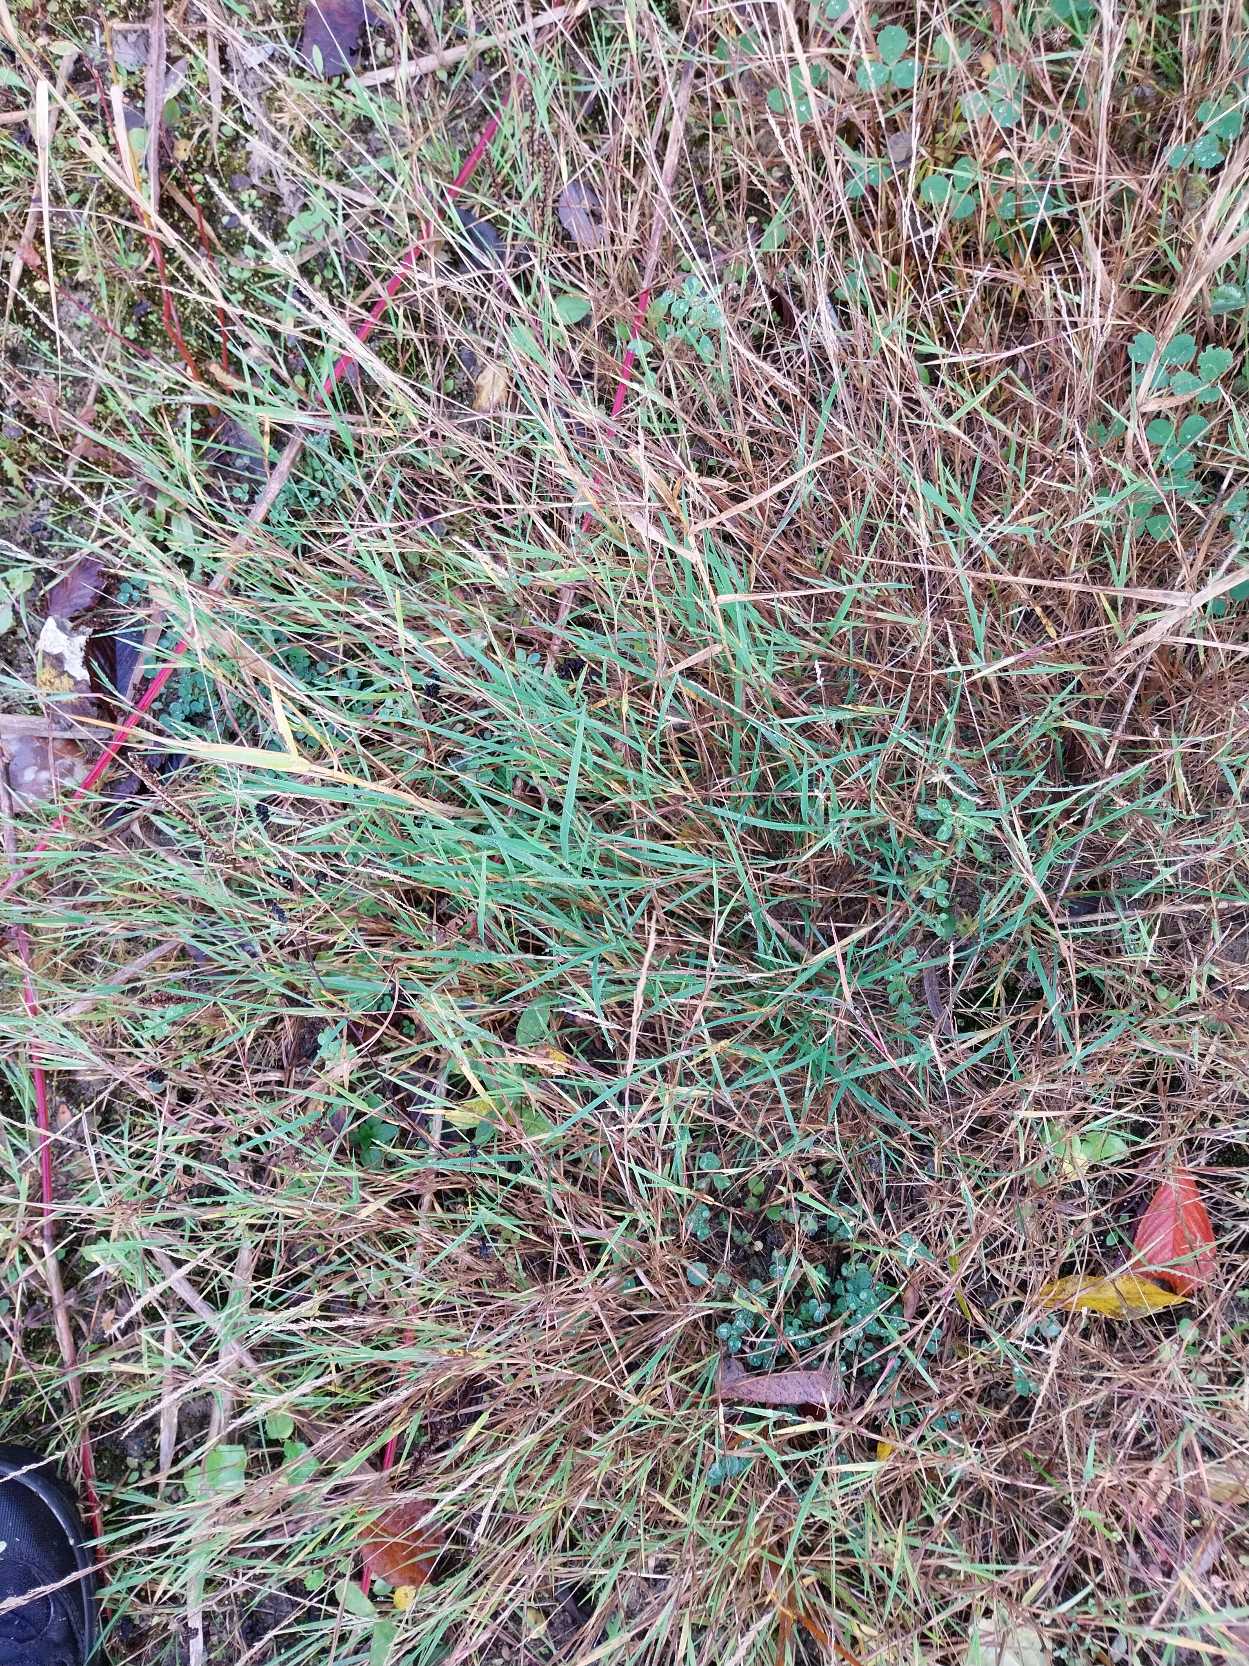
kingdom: Plantae
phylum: Tracheophyta
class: Liliopsida
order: Poales
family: Poaceae
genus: Agrostis
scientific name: Agrostis stolonifera
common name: Kryb-hvene
